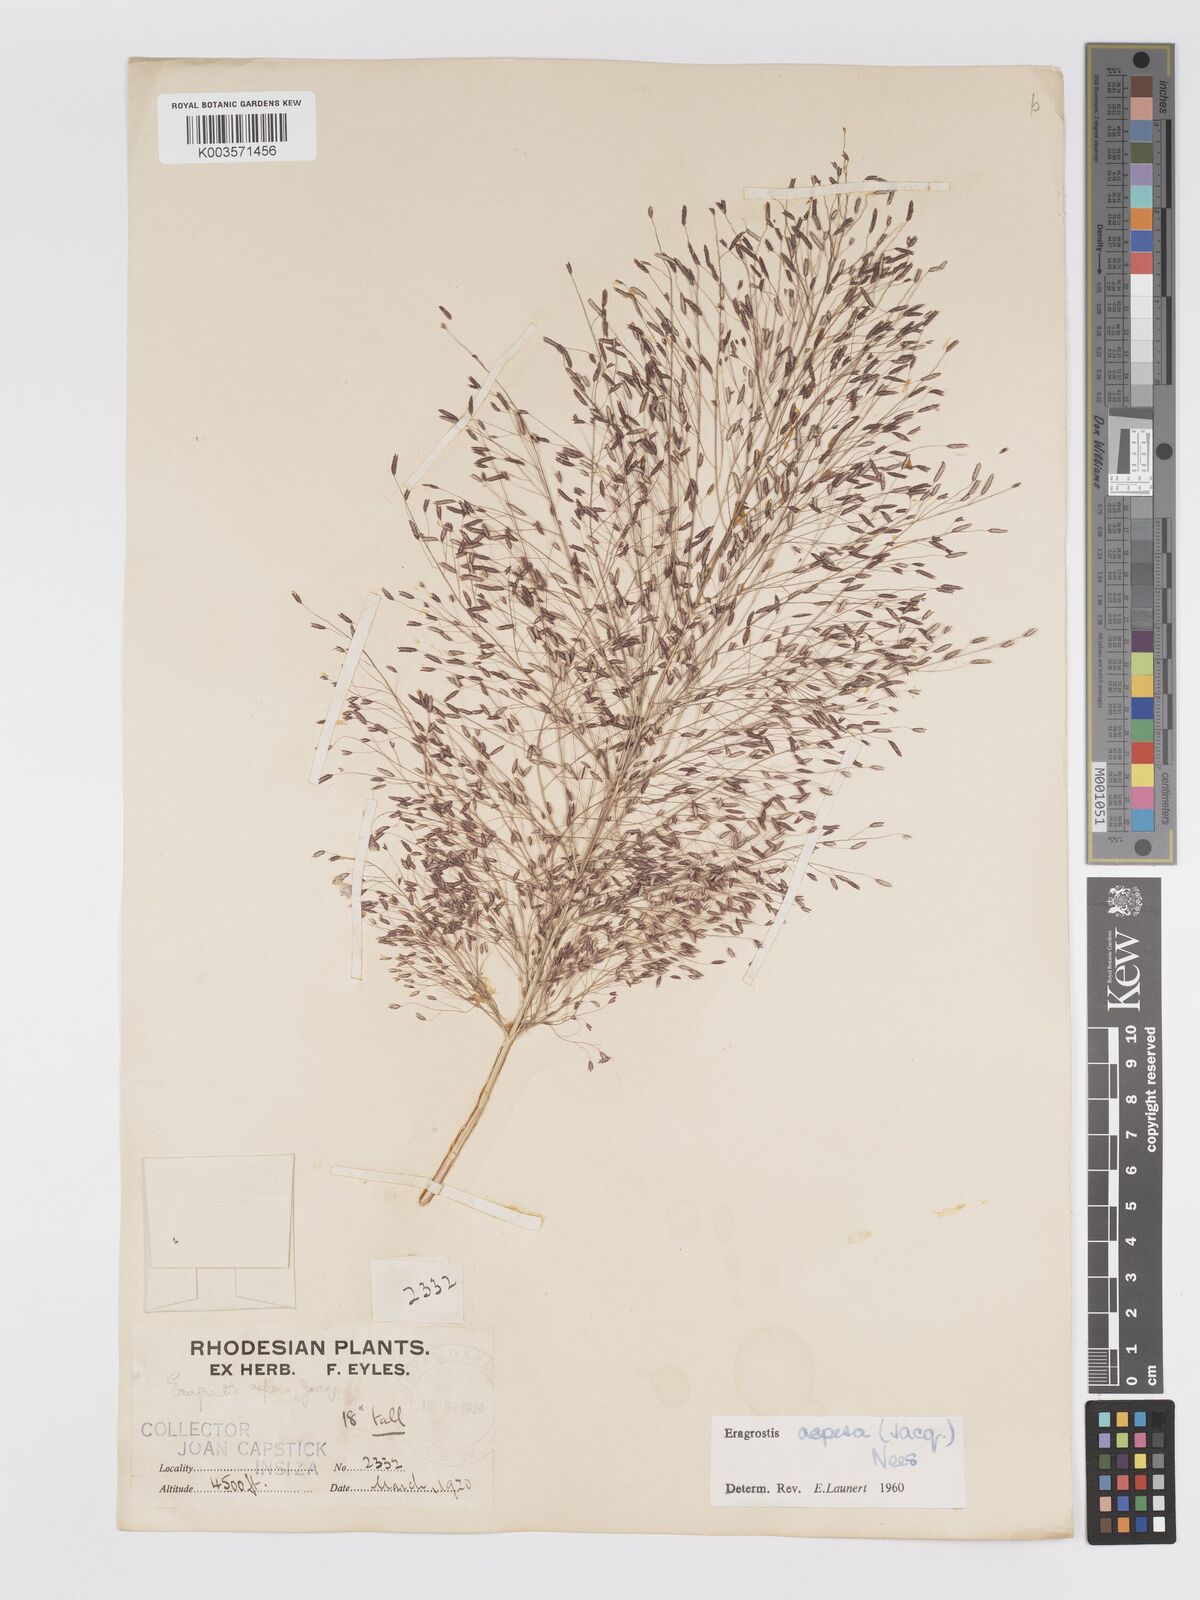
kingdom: Plantae
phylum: Tracheophyta
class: Liliopsida
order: Poales
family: Poaceae
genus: Eragrostis
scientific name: Eragrostis aspera
